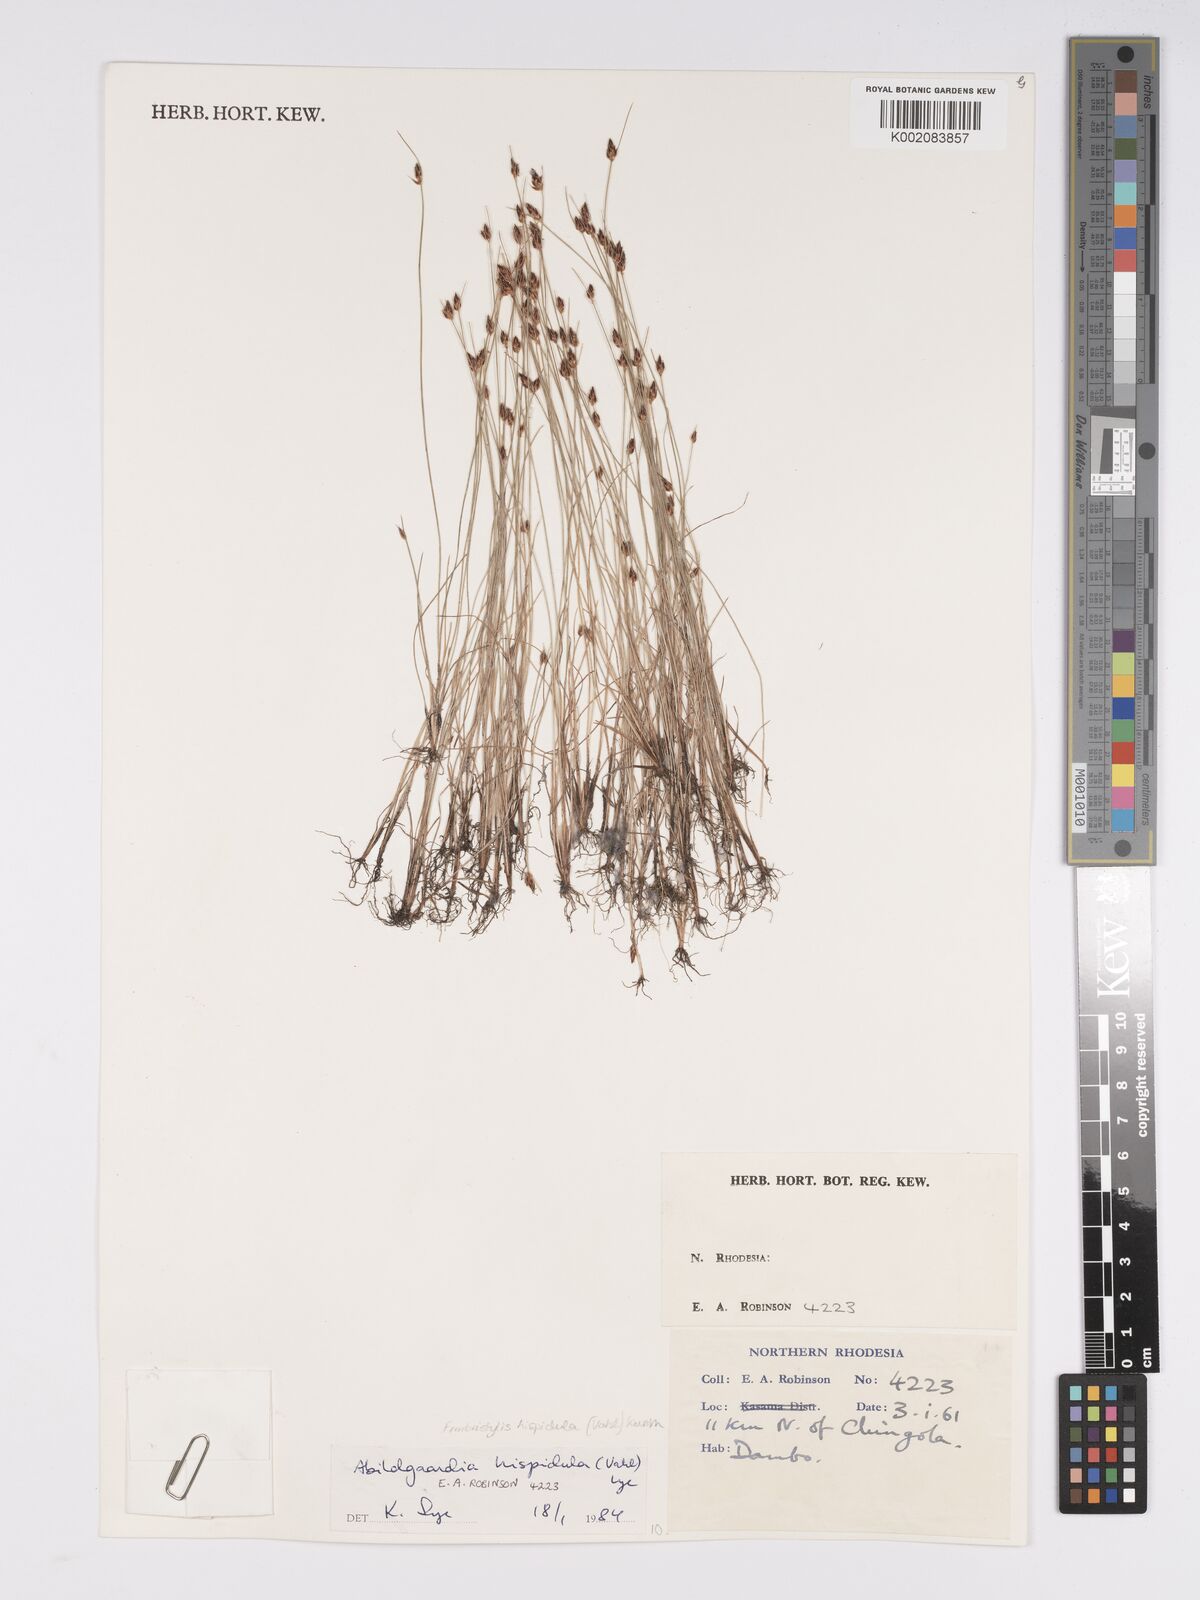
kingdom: Plantae
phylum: Tracheophyta
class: Liliopsida
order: Poales
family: Cyperaceae
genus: Bulbostylis
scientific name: Bulbostylis hispidula
